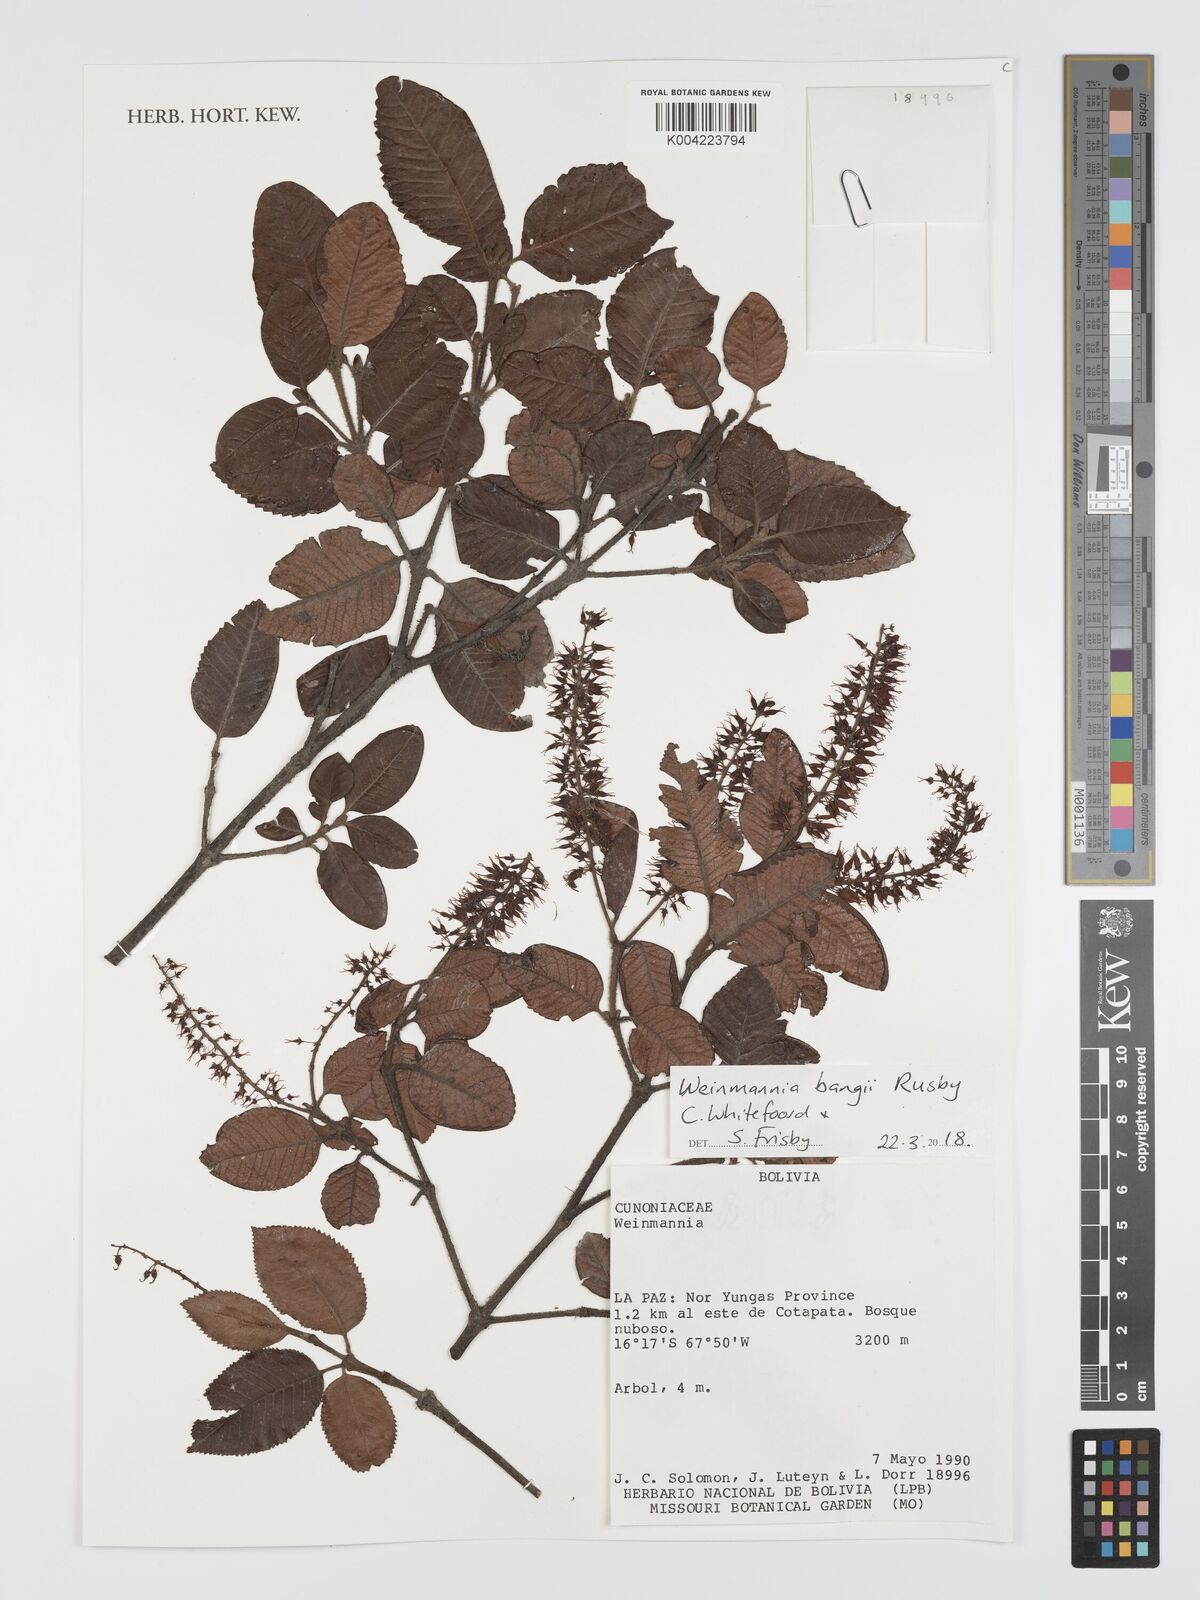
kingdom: Plantae
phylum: Tracheophyta
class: Magnoliopsida
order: Oxalidales
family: Cunoniaceae
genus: Weinmannia
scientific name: Weinmannia bangii
